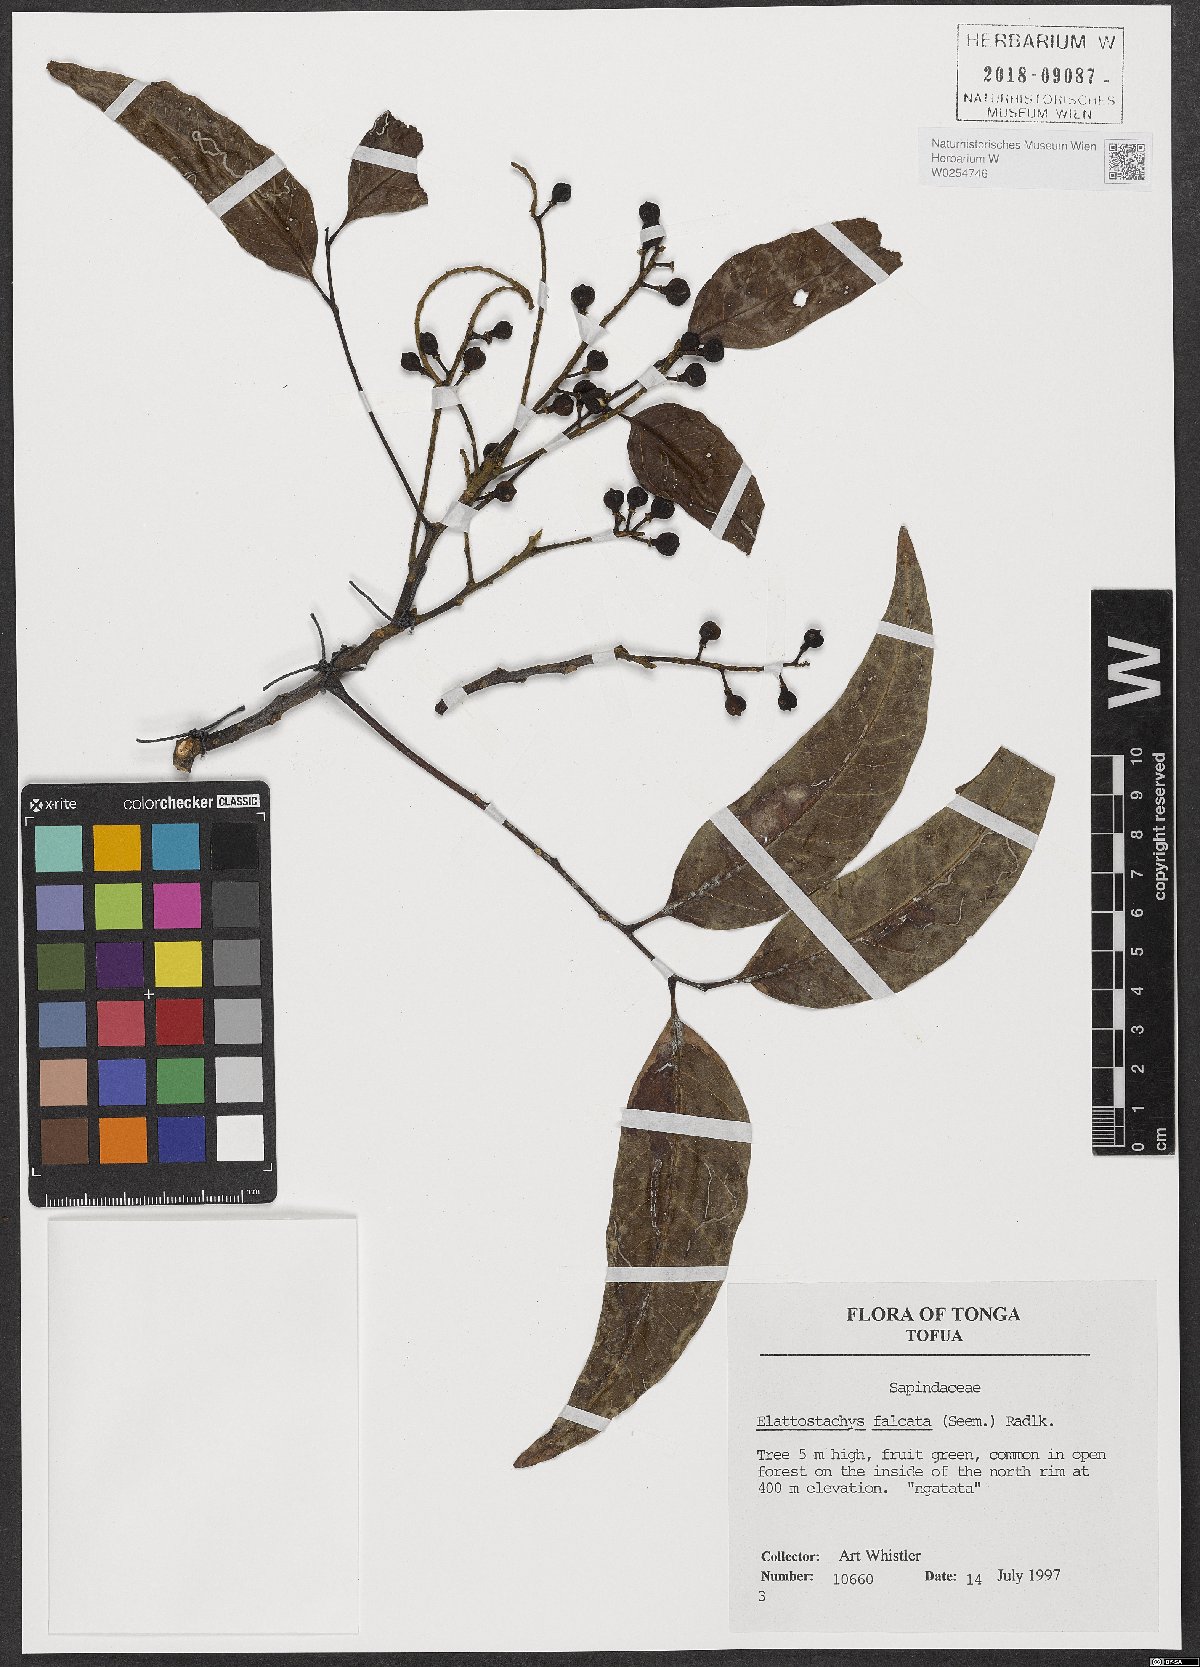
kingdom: Plantae
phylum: Tracheophyta
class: Magnoliopsida
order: Sapindales
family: Sapindaceae
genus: Elattostachys
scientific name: Elattostachys apetala
